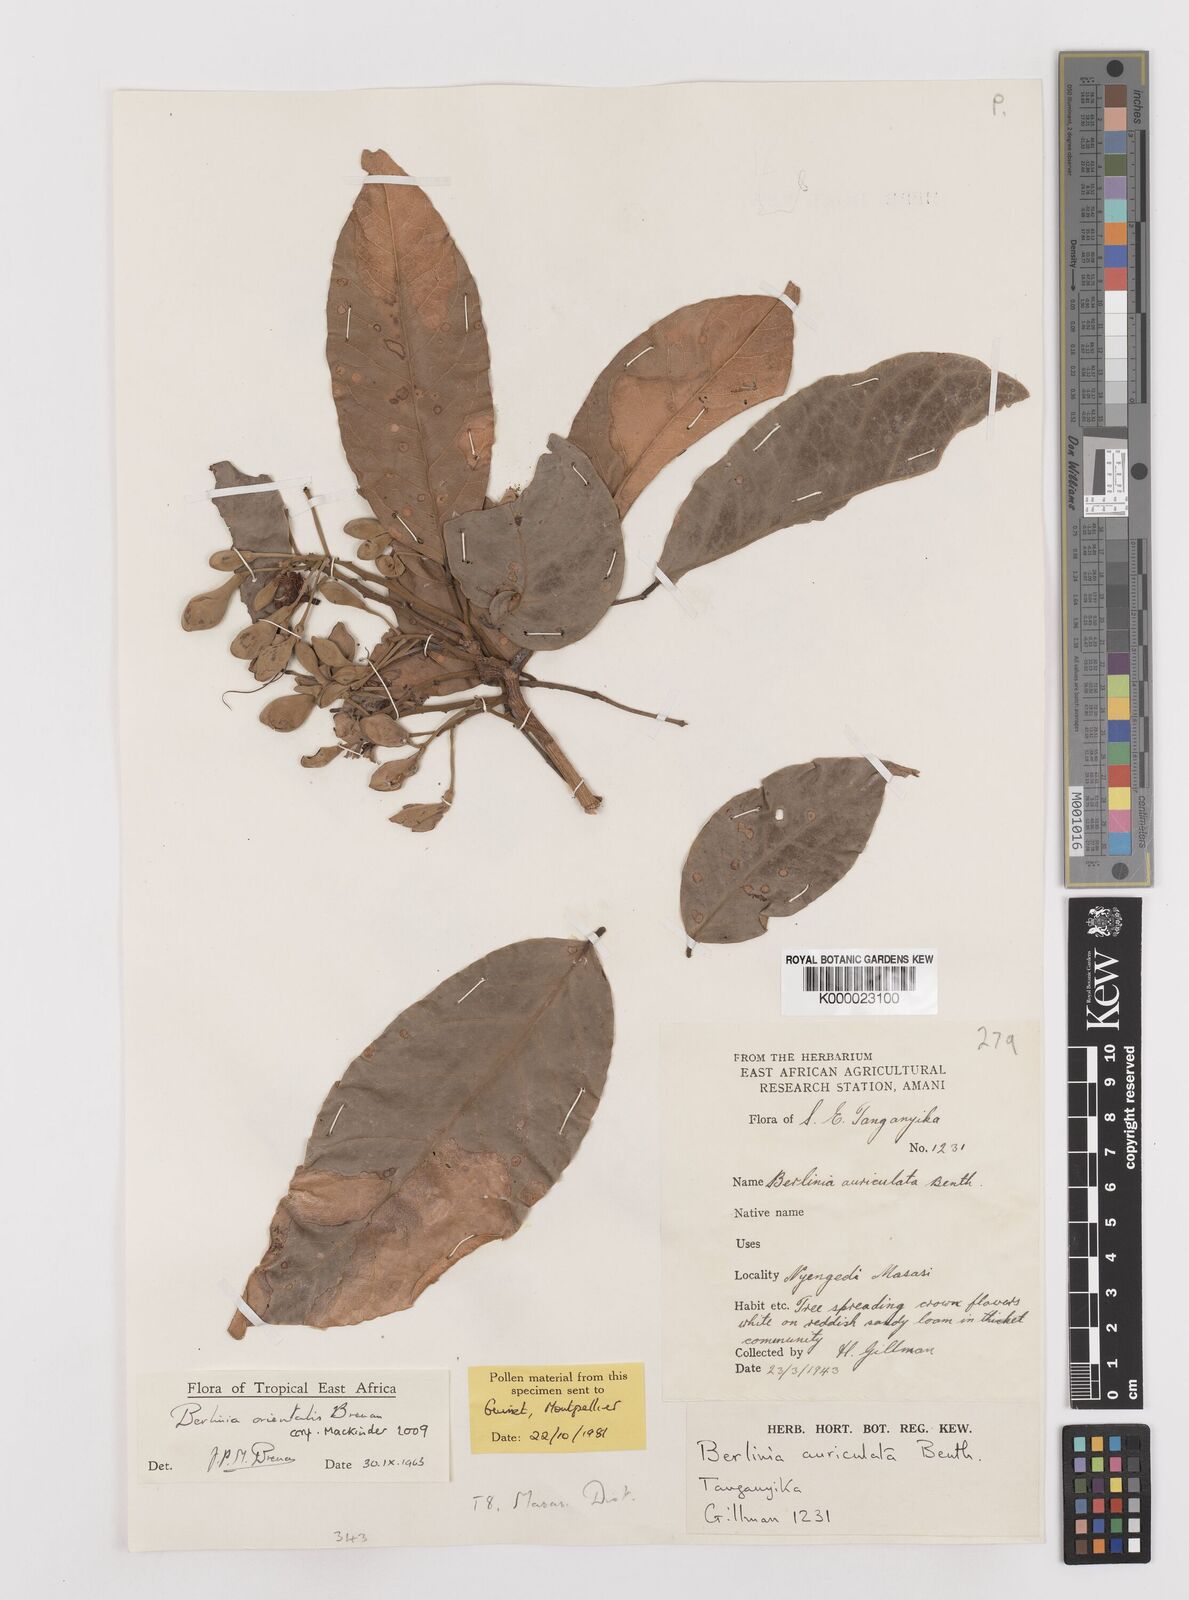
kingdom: Plantae
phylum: Tracheophyta
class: Magnoliopsida
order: Fabales
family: Fabaceae
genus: Berlinia
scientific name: Berlinia orientalis
